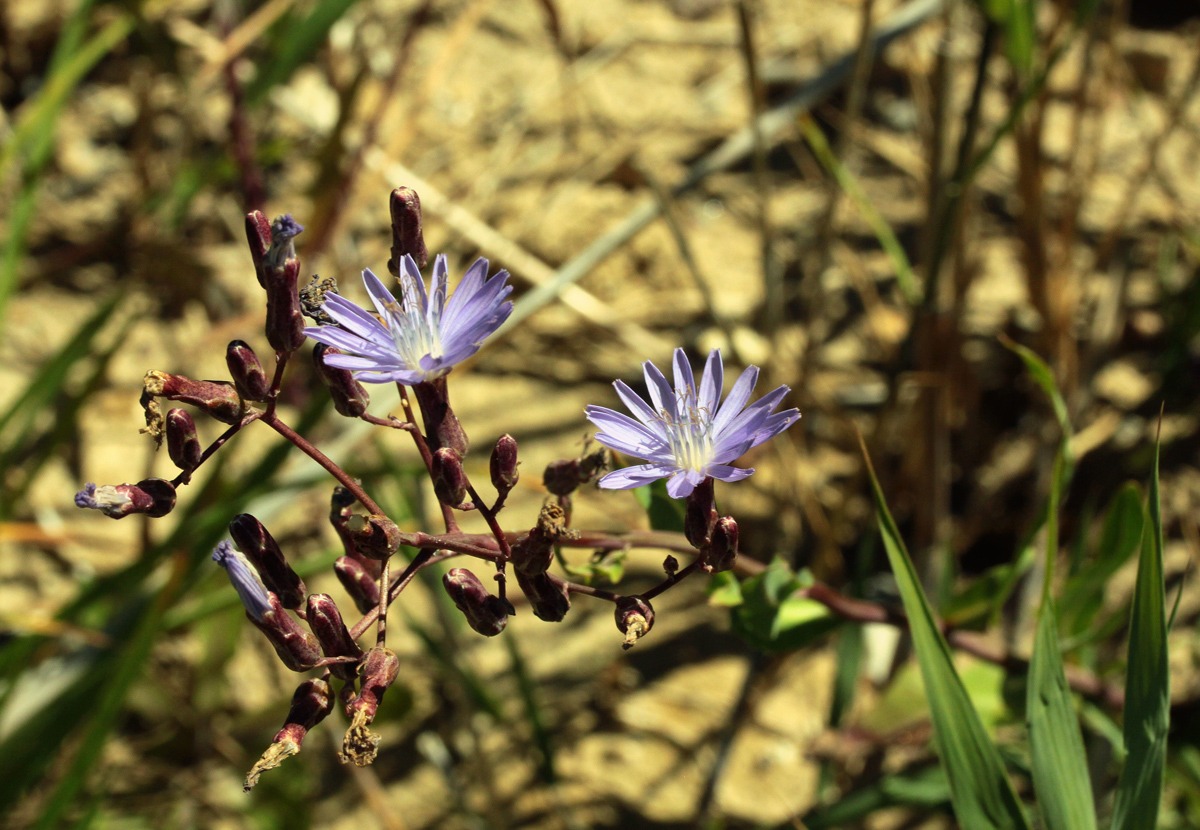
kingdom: Plantae
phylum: Tracheophyta
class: Magnoliopsida
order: Asterales
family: Asteraceae
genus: Lactuca
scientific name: Lactuca tatarica
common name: Strand-salat
